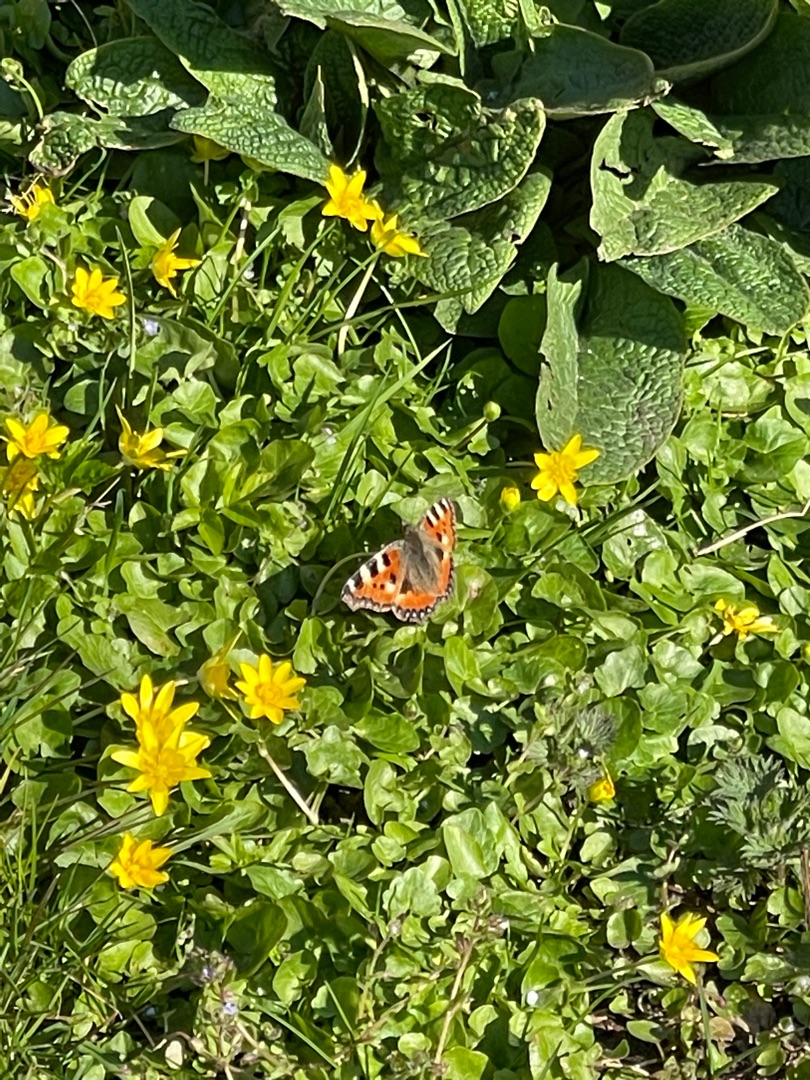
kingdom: Animalia
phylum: Arthropoda
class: Insecta
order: Lepidoptera
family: Nymphalidae
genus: Aglais
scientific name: Aglais urticae
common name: Nældens takvinge
